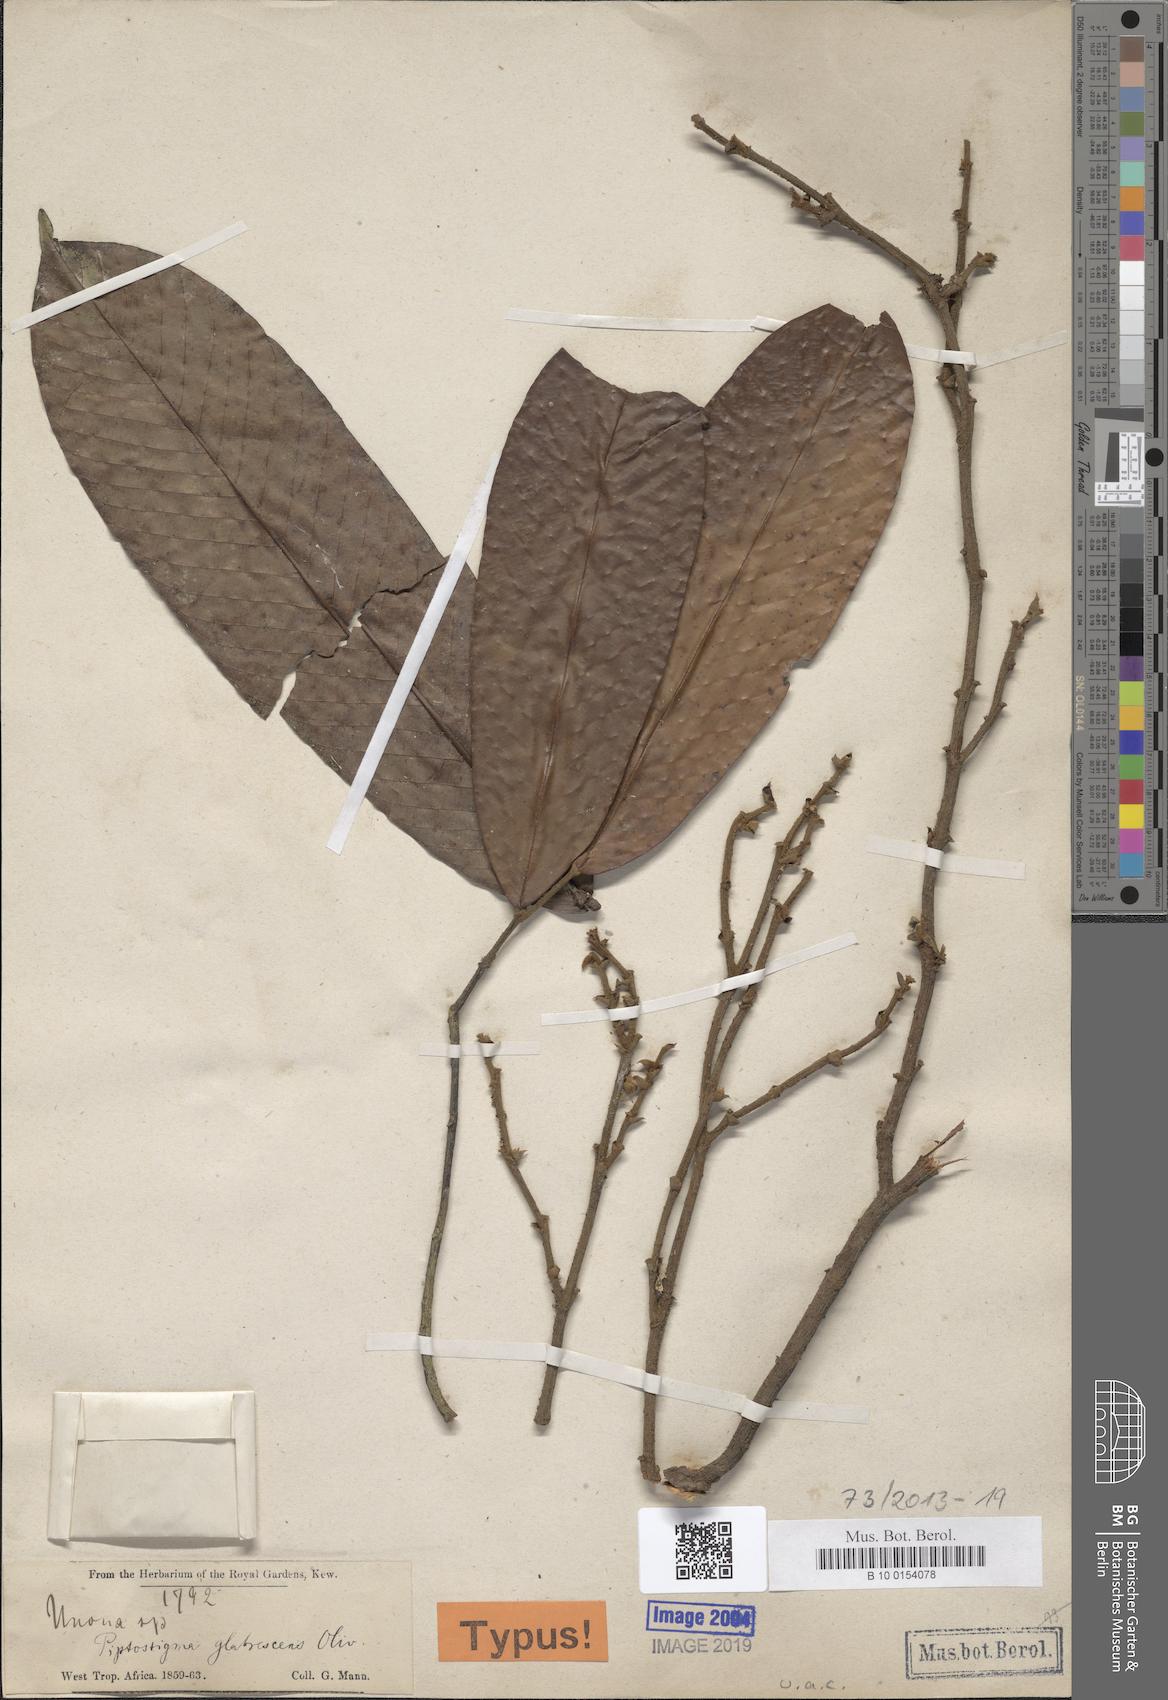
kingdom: Plantae
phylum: Tracheophyta
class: Magnoliopsida
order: Magnoliales
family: Annonaceae
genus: Piptostigma
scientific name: Piptostigma glabrescens
